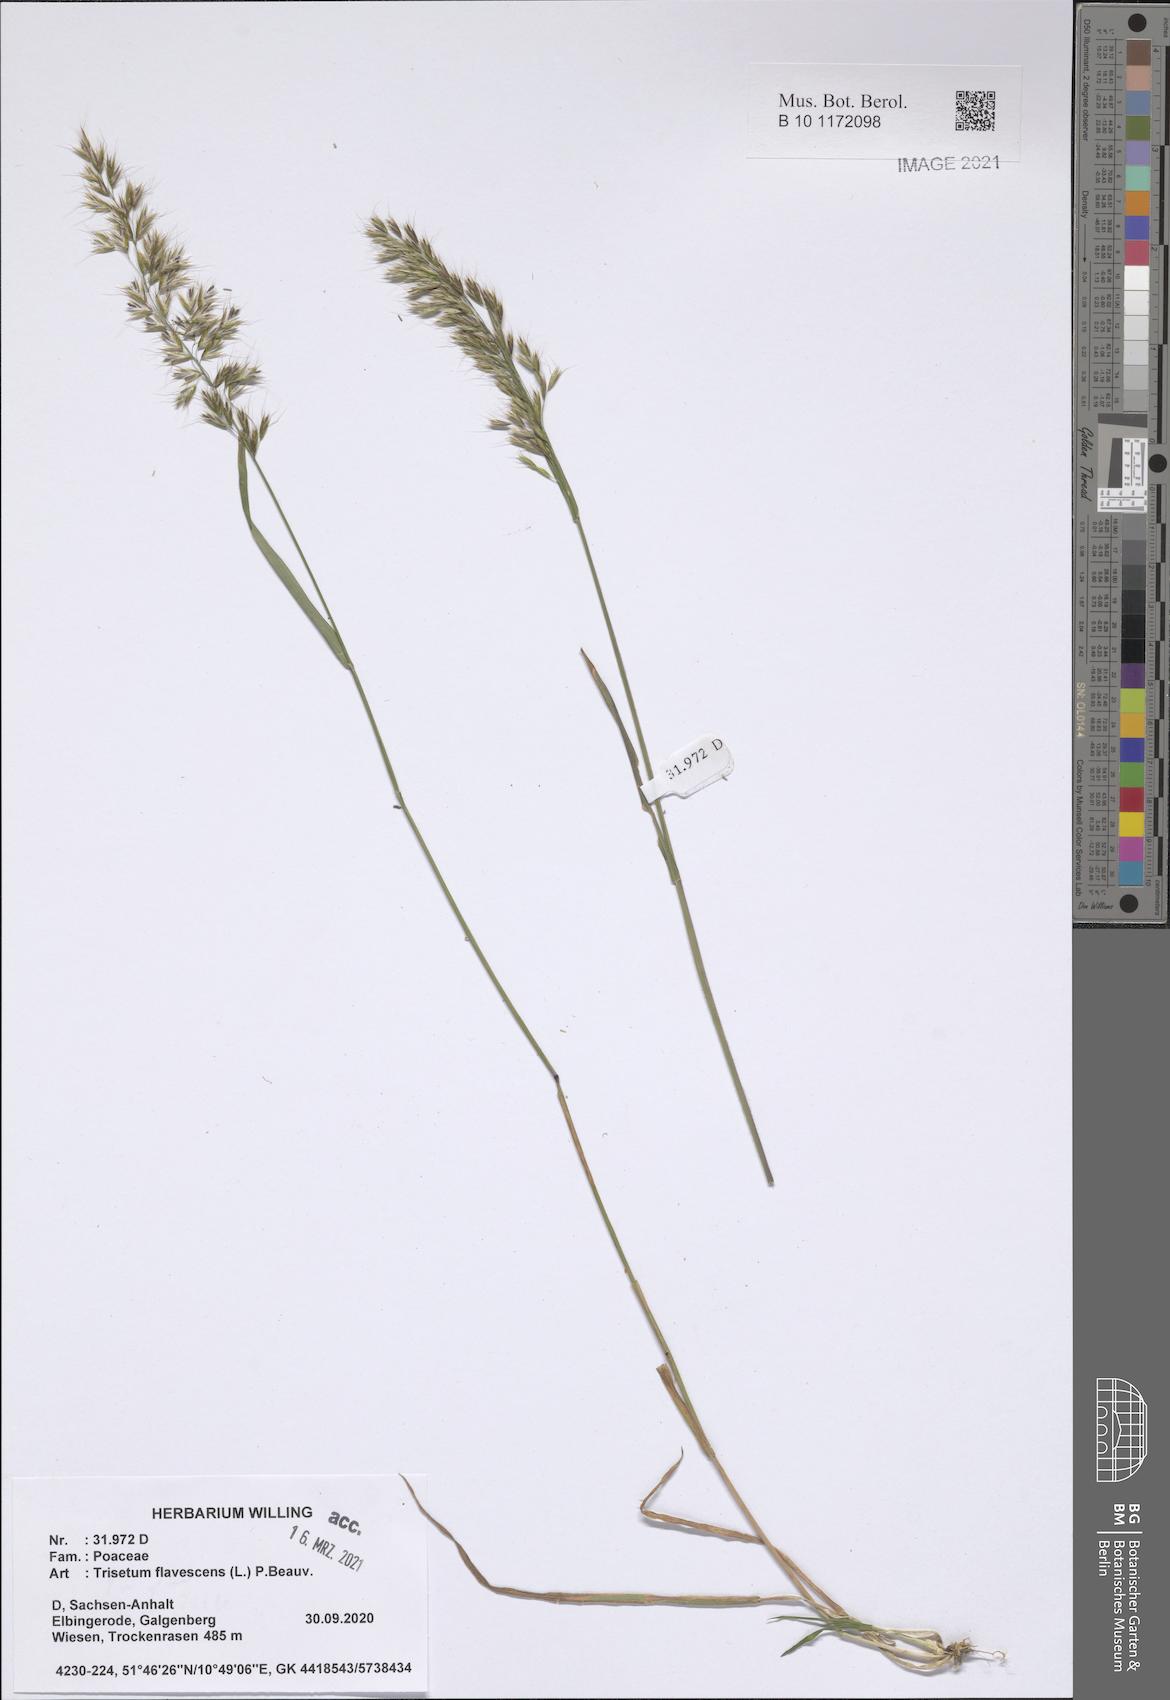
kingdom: Plantae
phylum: Tracheophyta
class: Liliopsida
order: Poales
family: Poaceae
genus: Trisetum
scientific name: Trisetum flavescens
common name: Yellow oat-grass
